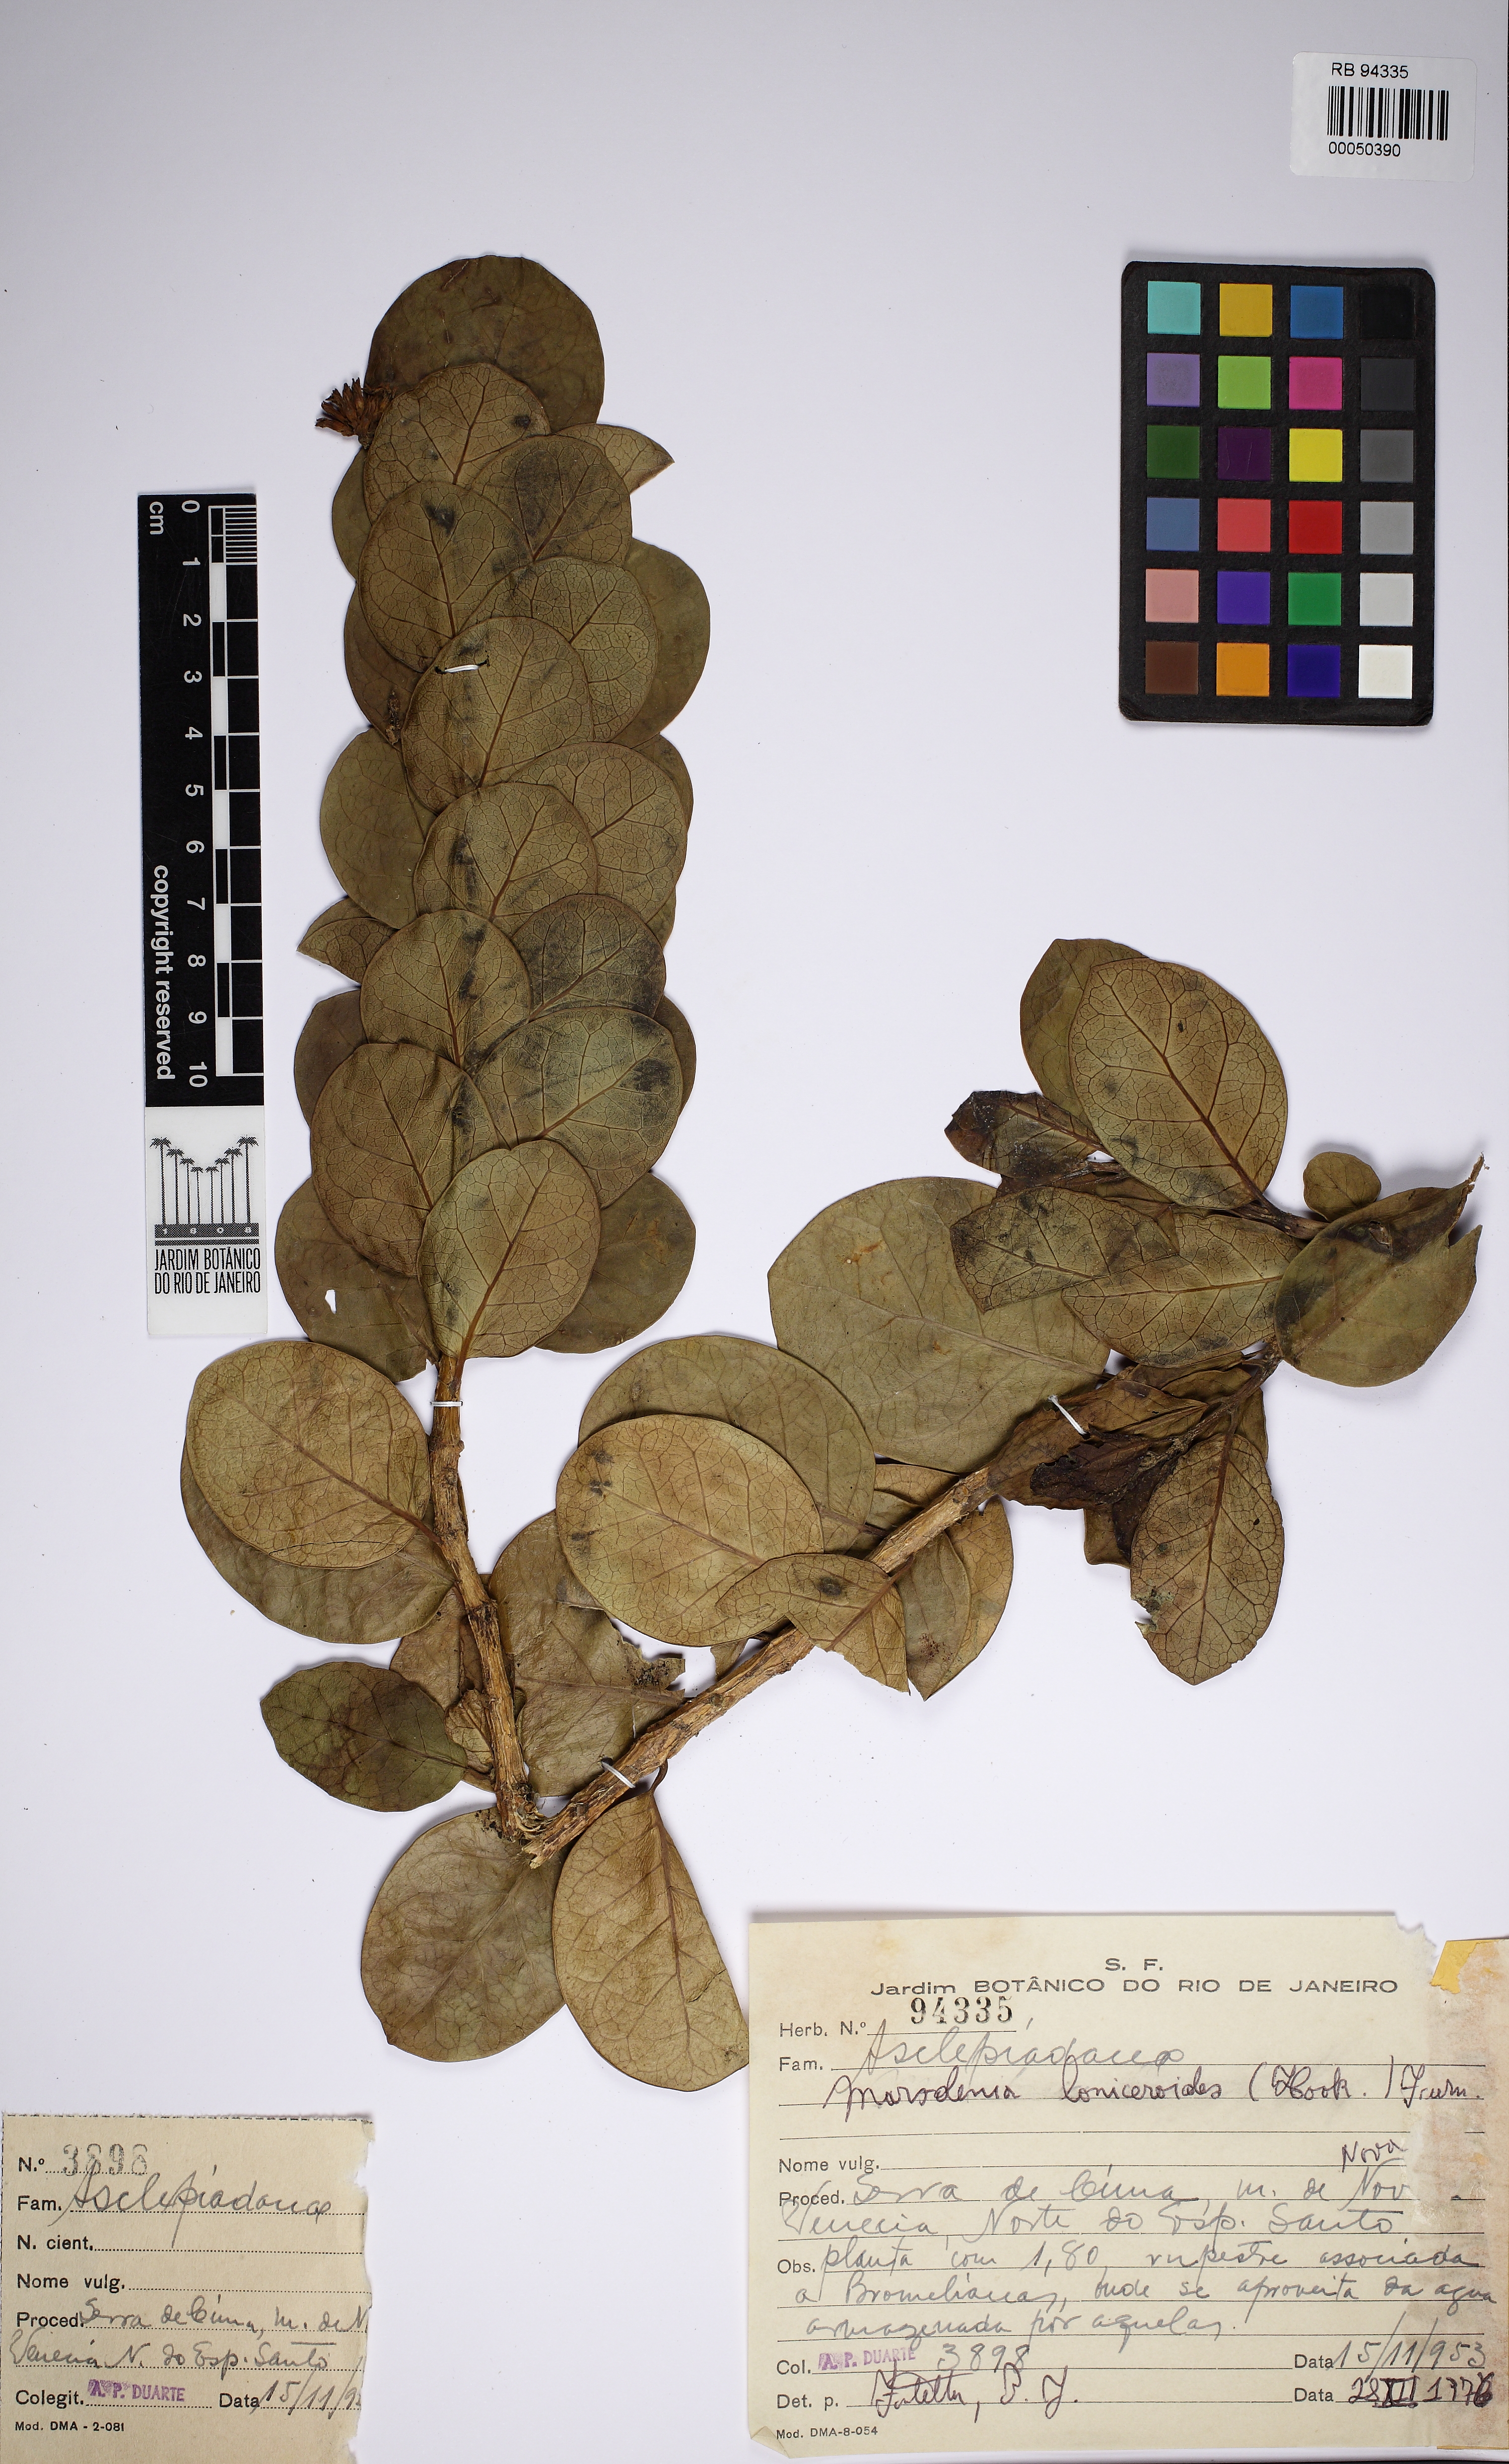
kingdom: Plantae
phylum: Tracheophyta
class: Magnoliopsida
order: Gentianales
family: Apocynaceae
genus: Ruehssia
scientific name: Ruehssia caatingae
